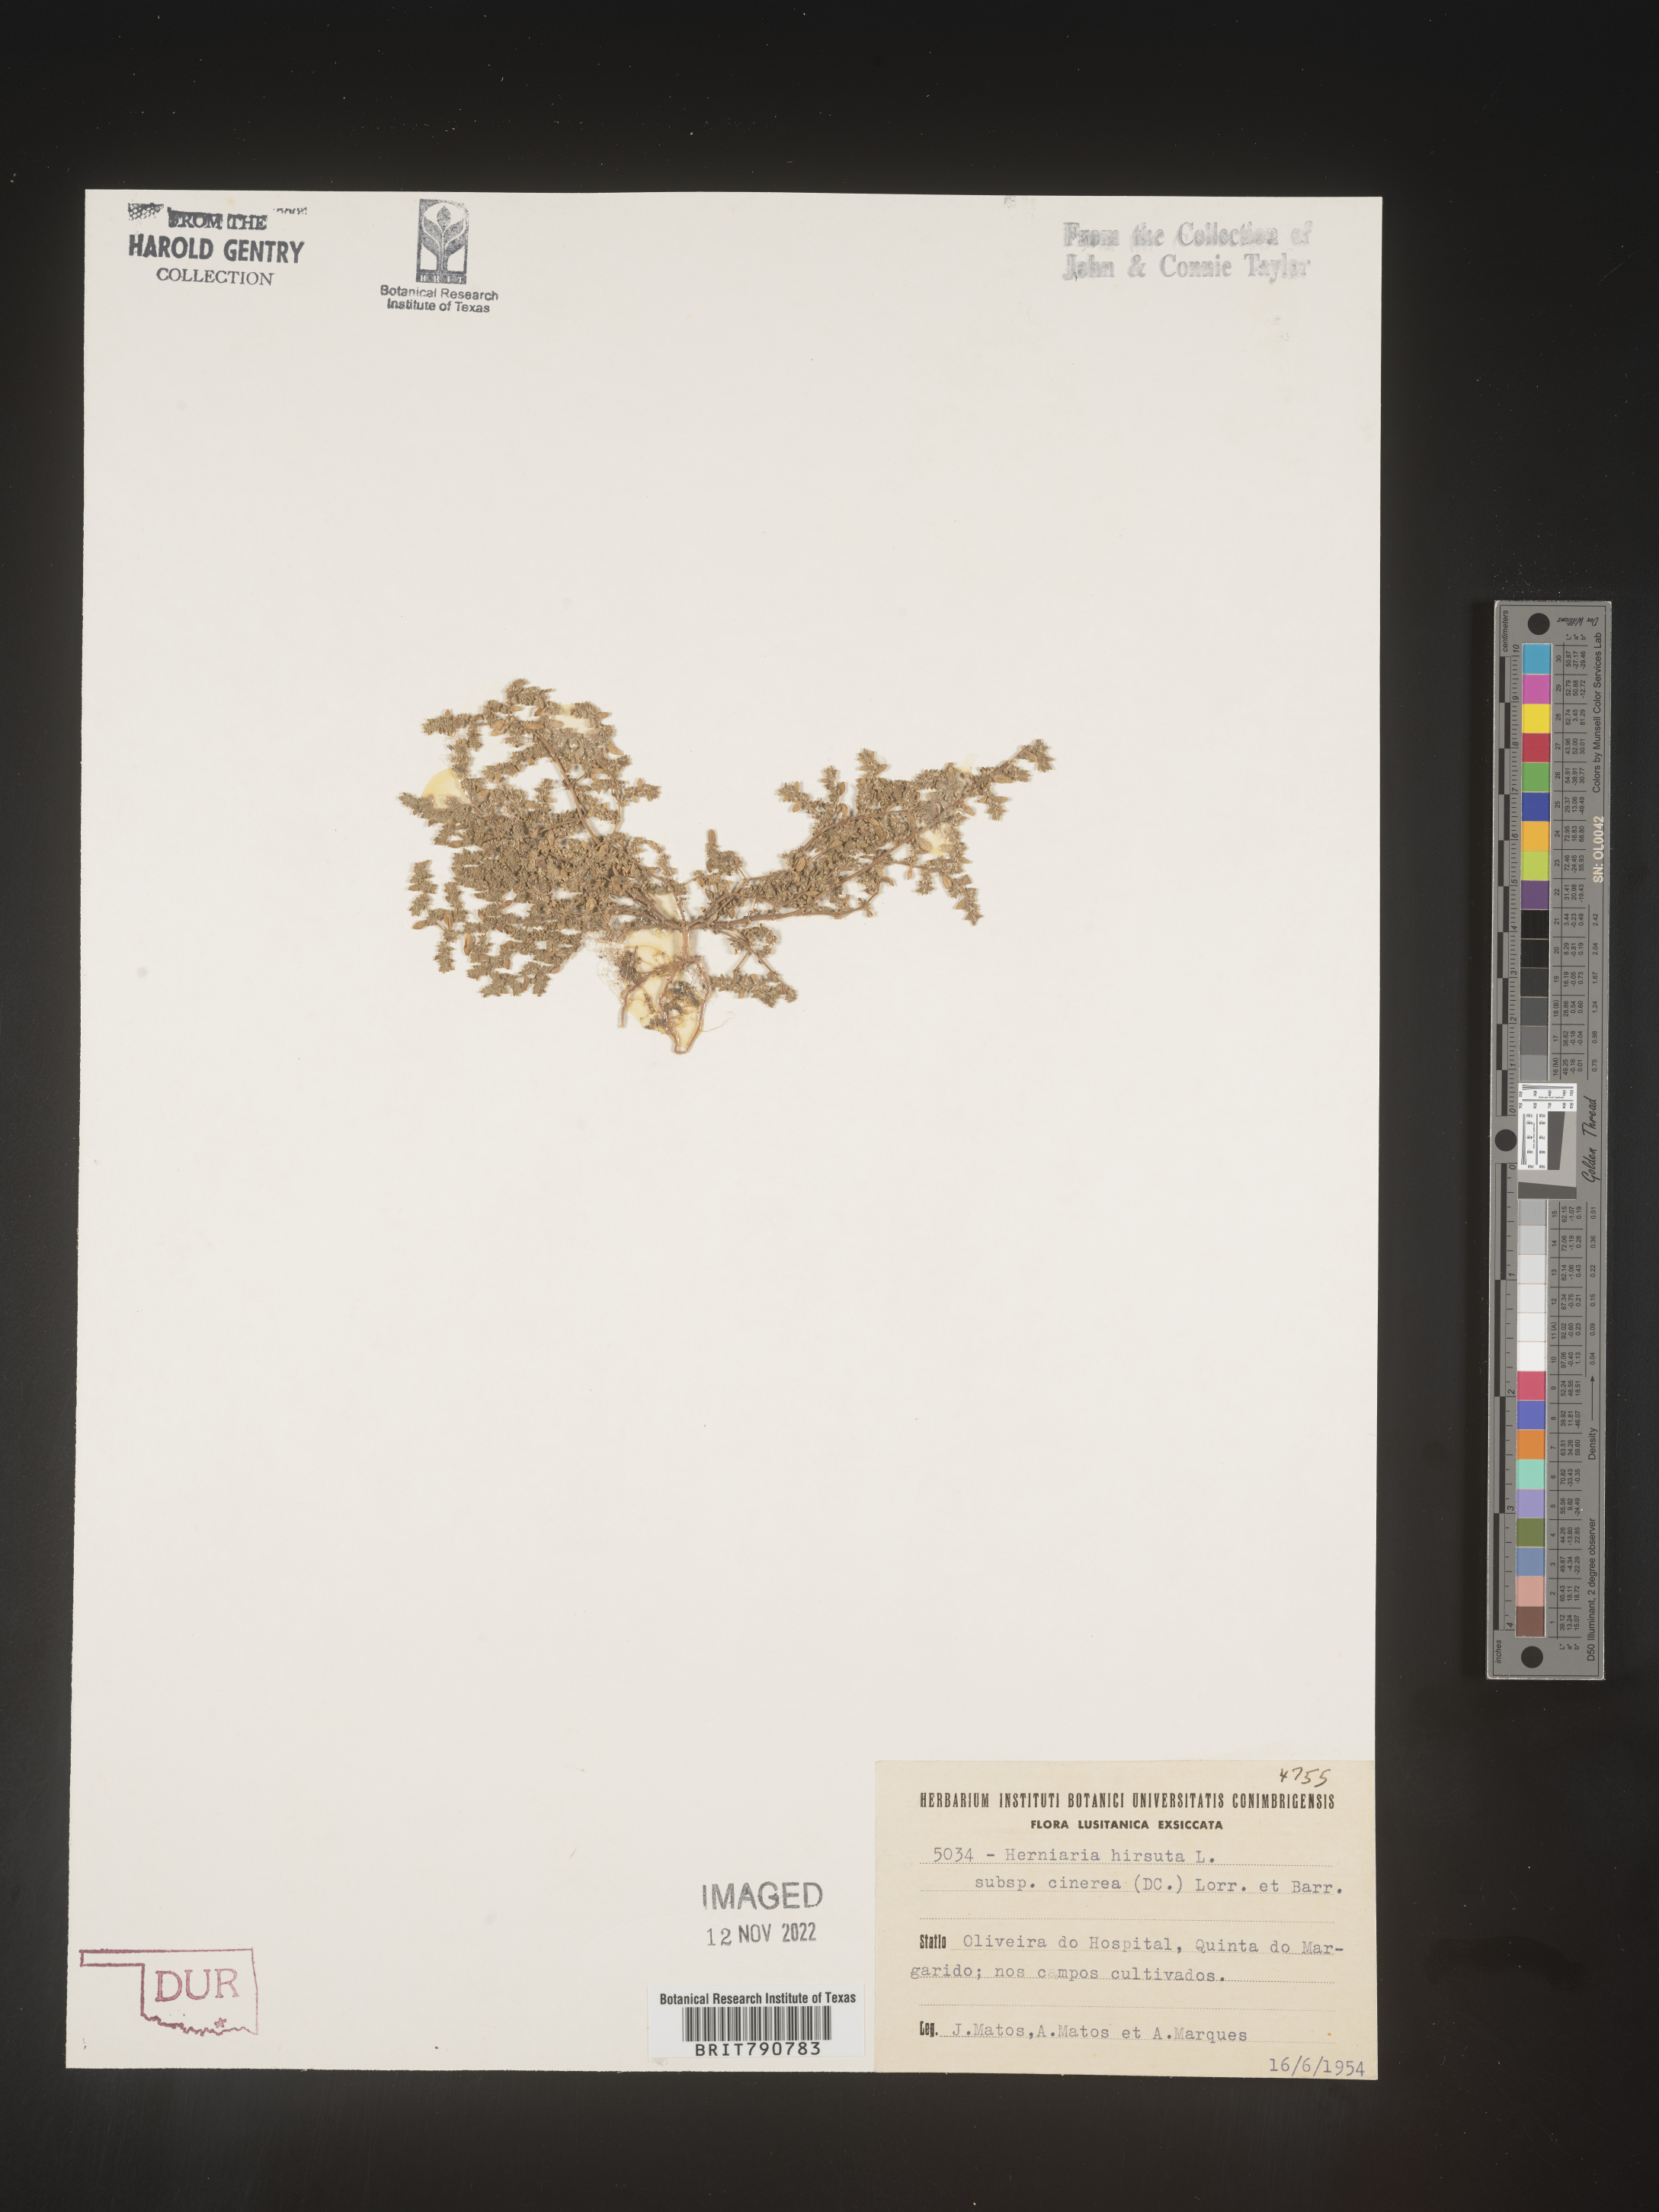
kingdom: Plantae
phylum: Tracheophyta
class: Magnoliopsida
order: Caryophyllales
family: Caryophyllaceae
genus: Herniaria
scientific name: Herniaria
